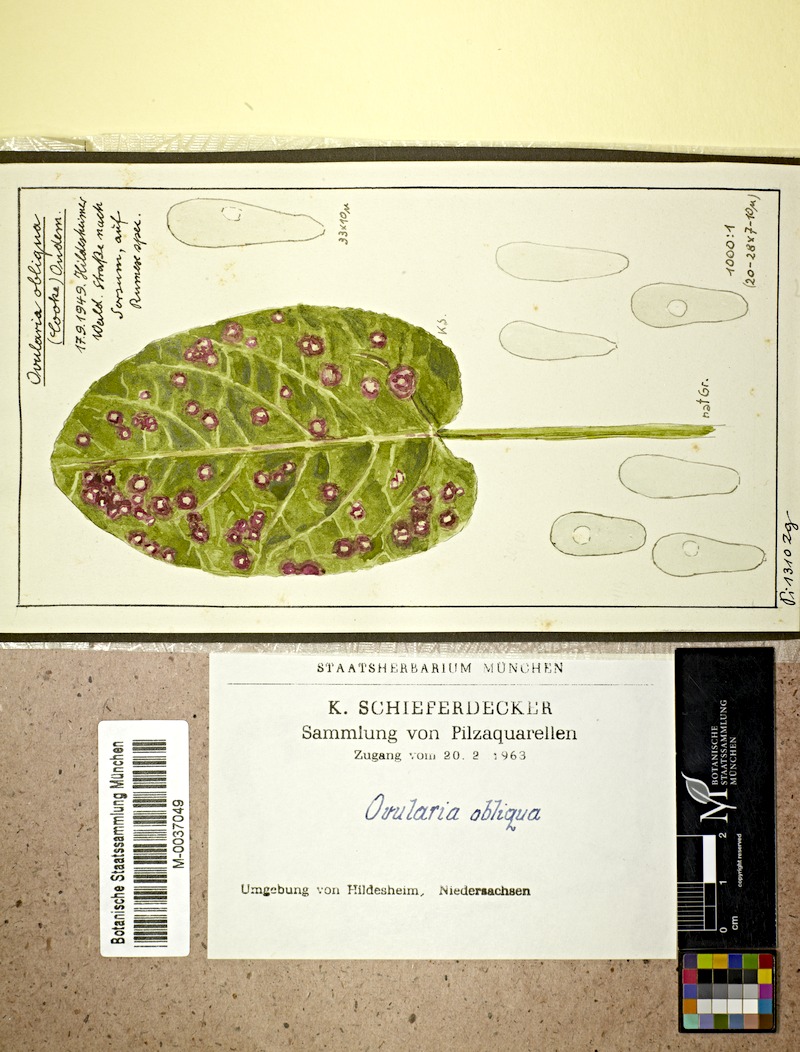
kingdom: Plantae
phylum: Tracheophyta
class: Magnoliopsida
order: Caryophyllales
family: Polygonaceae
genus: Rumex
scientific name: Rumex
